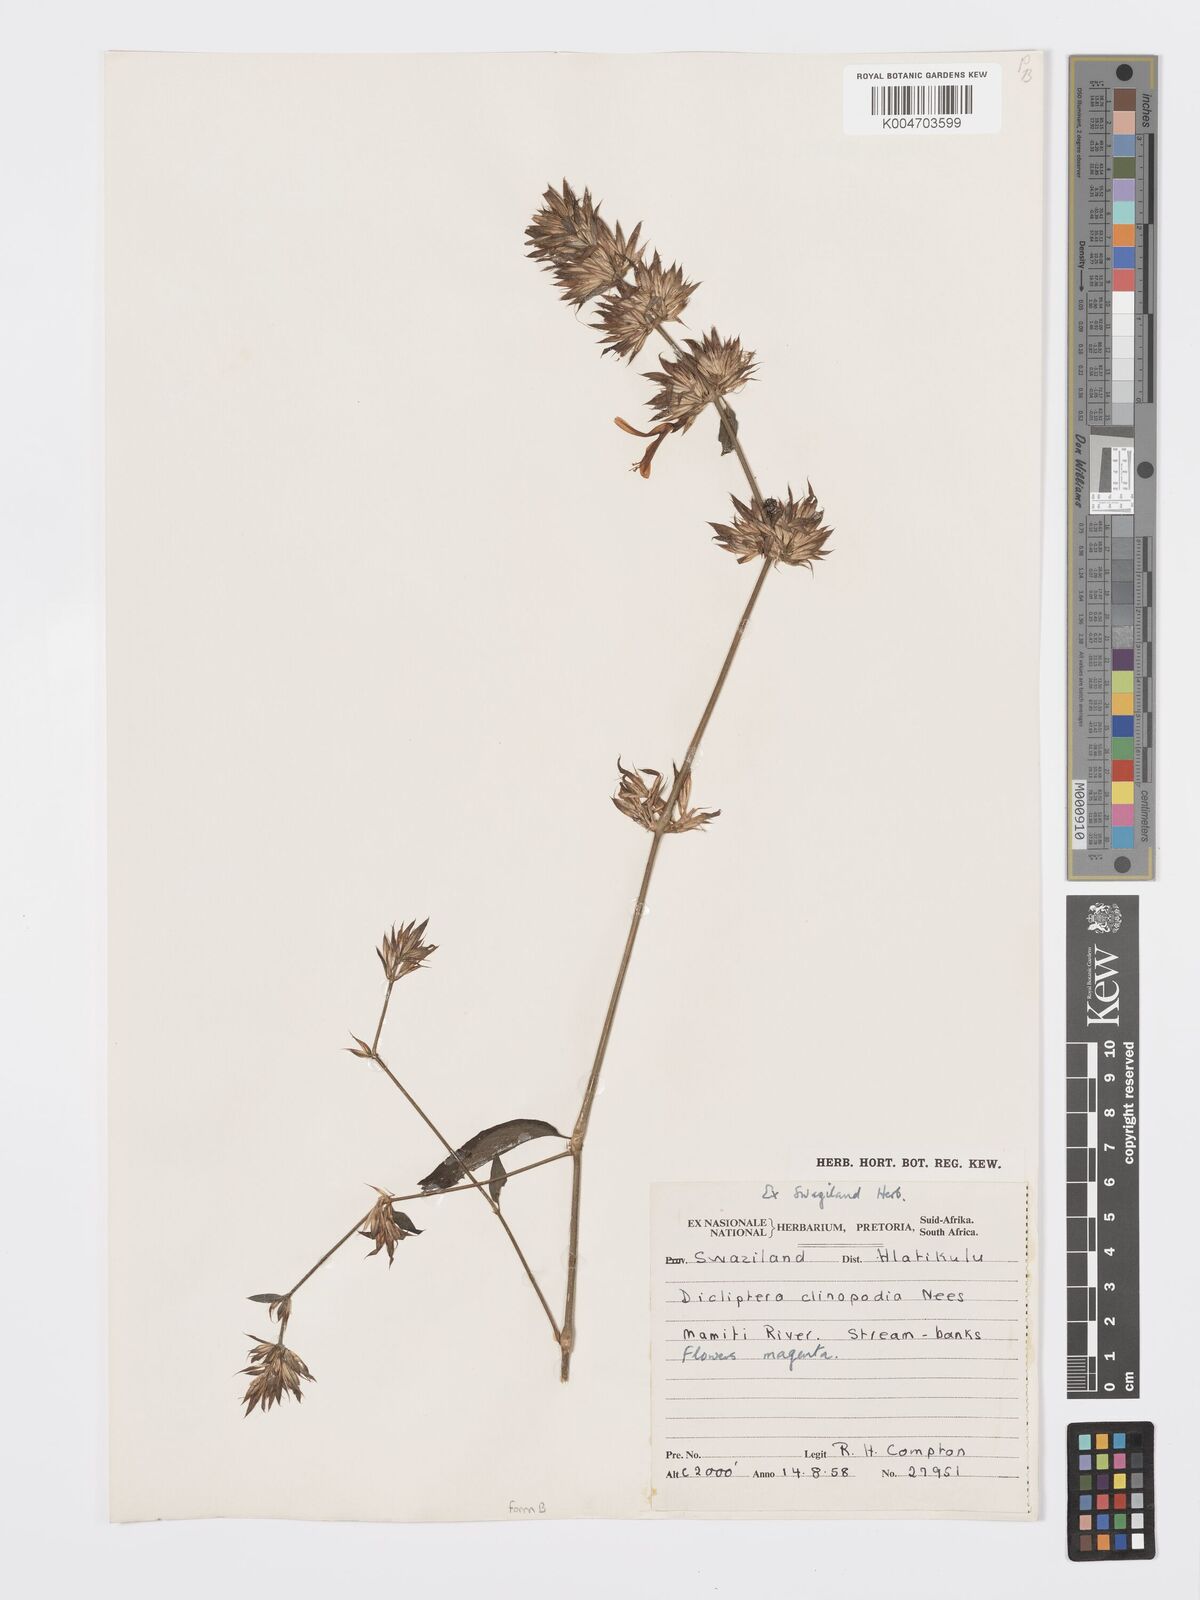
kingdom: Plantae
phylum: Tracheophyta
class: Magnoliopsida
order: Lamiales
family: Acanthaceae
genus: Dicliptera
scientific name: Dicliptera clinopodia
